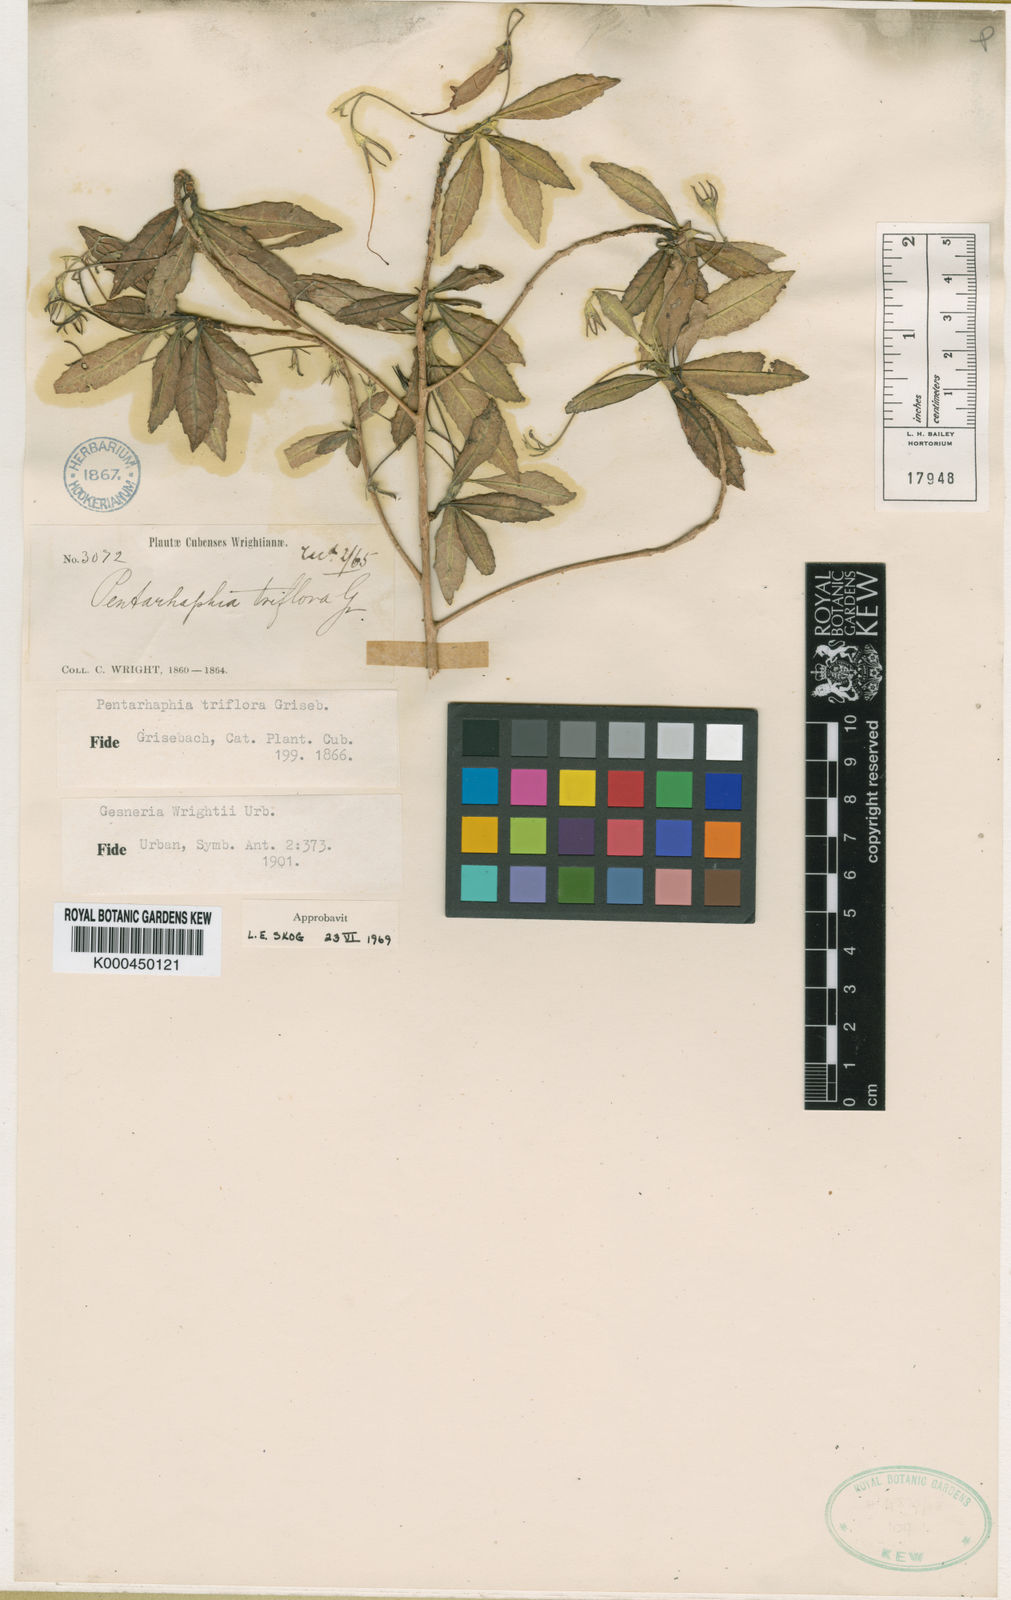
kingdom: Plantae
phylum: Tracheophyta
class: Magnoliopsida
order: Lamiales
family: Gesneriaceae
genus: Gesneria
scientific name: Gesneria wrightii
